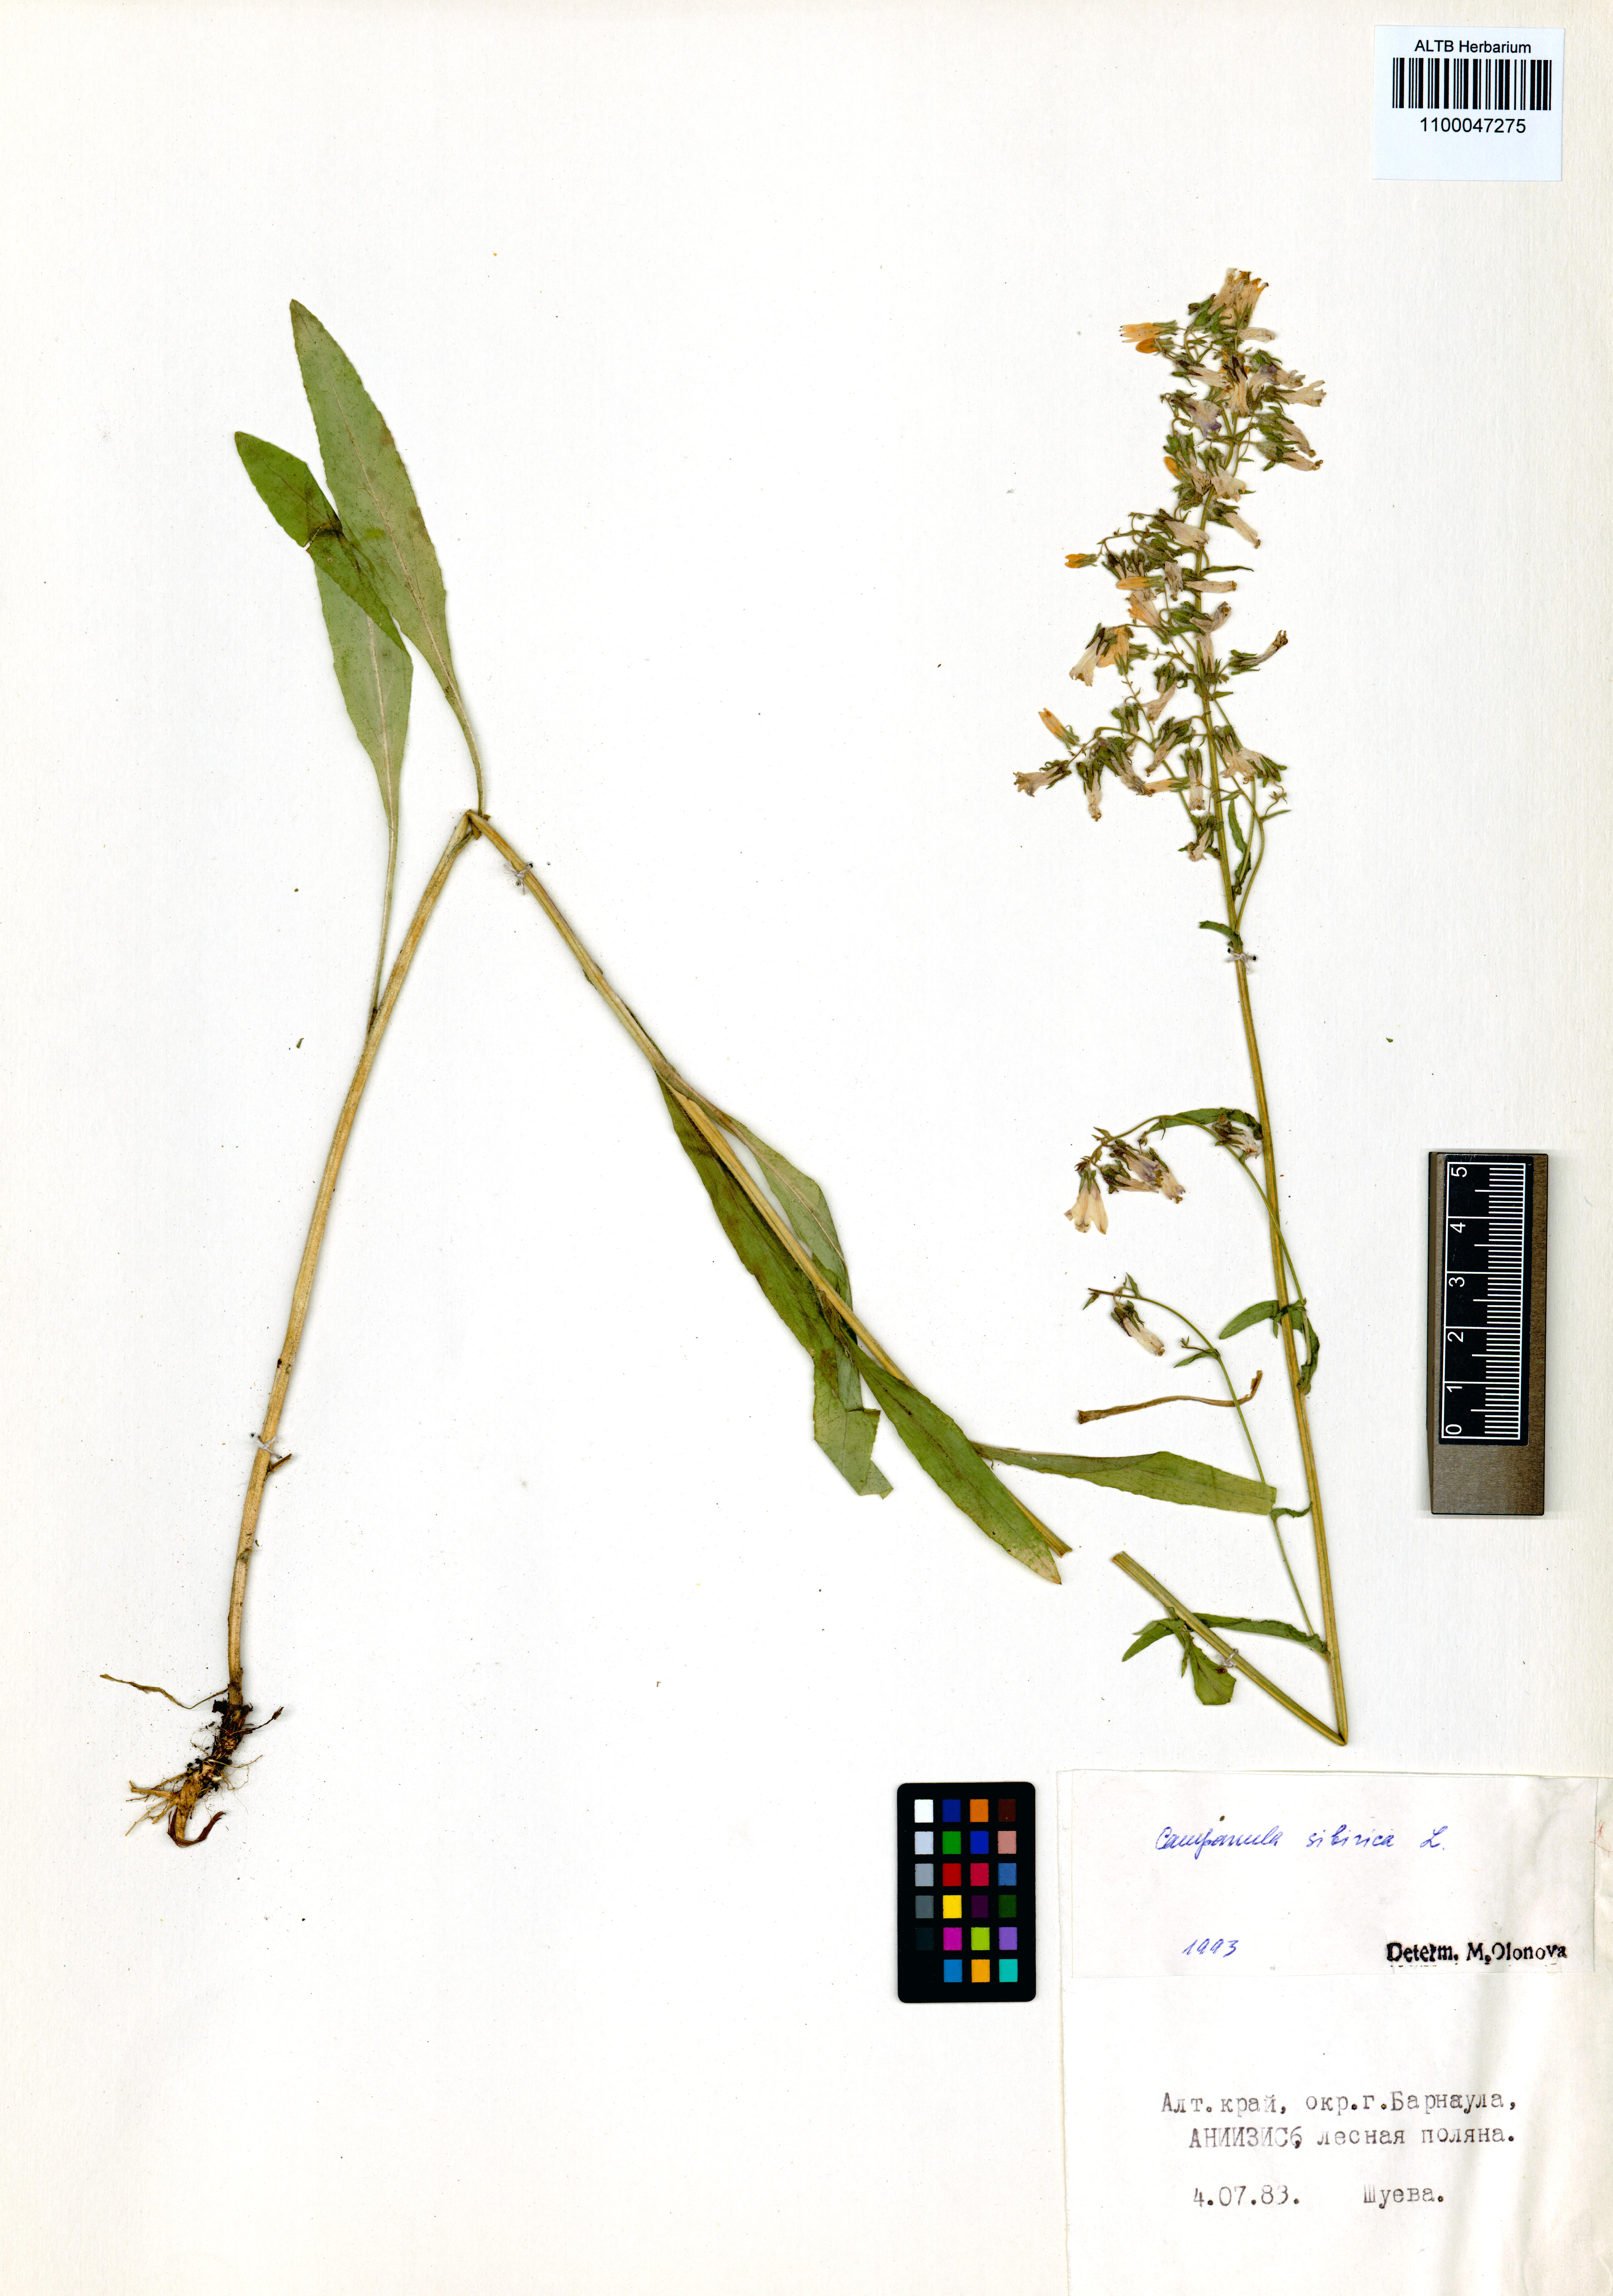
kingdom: Plantae
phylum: Tracheophyta
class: Magnoliopsida
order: Asterales
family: Campanulaceae
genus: Campanula
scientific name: Campanula sibirica
